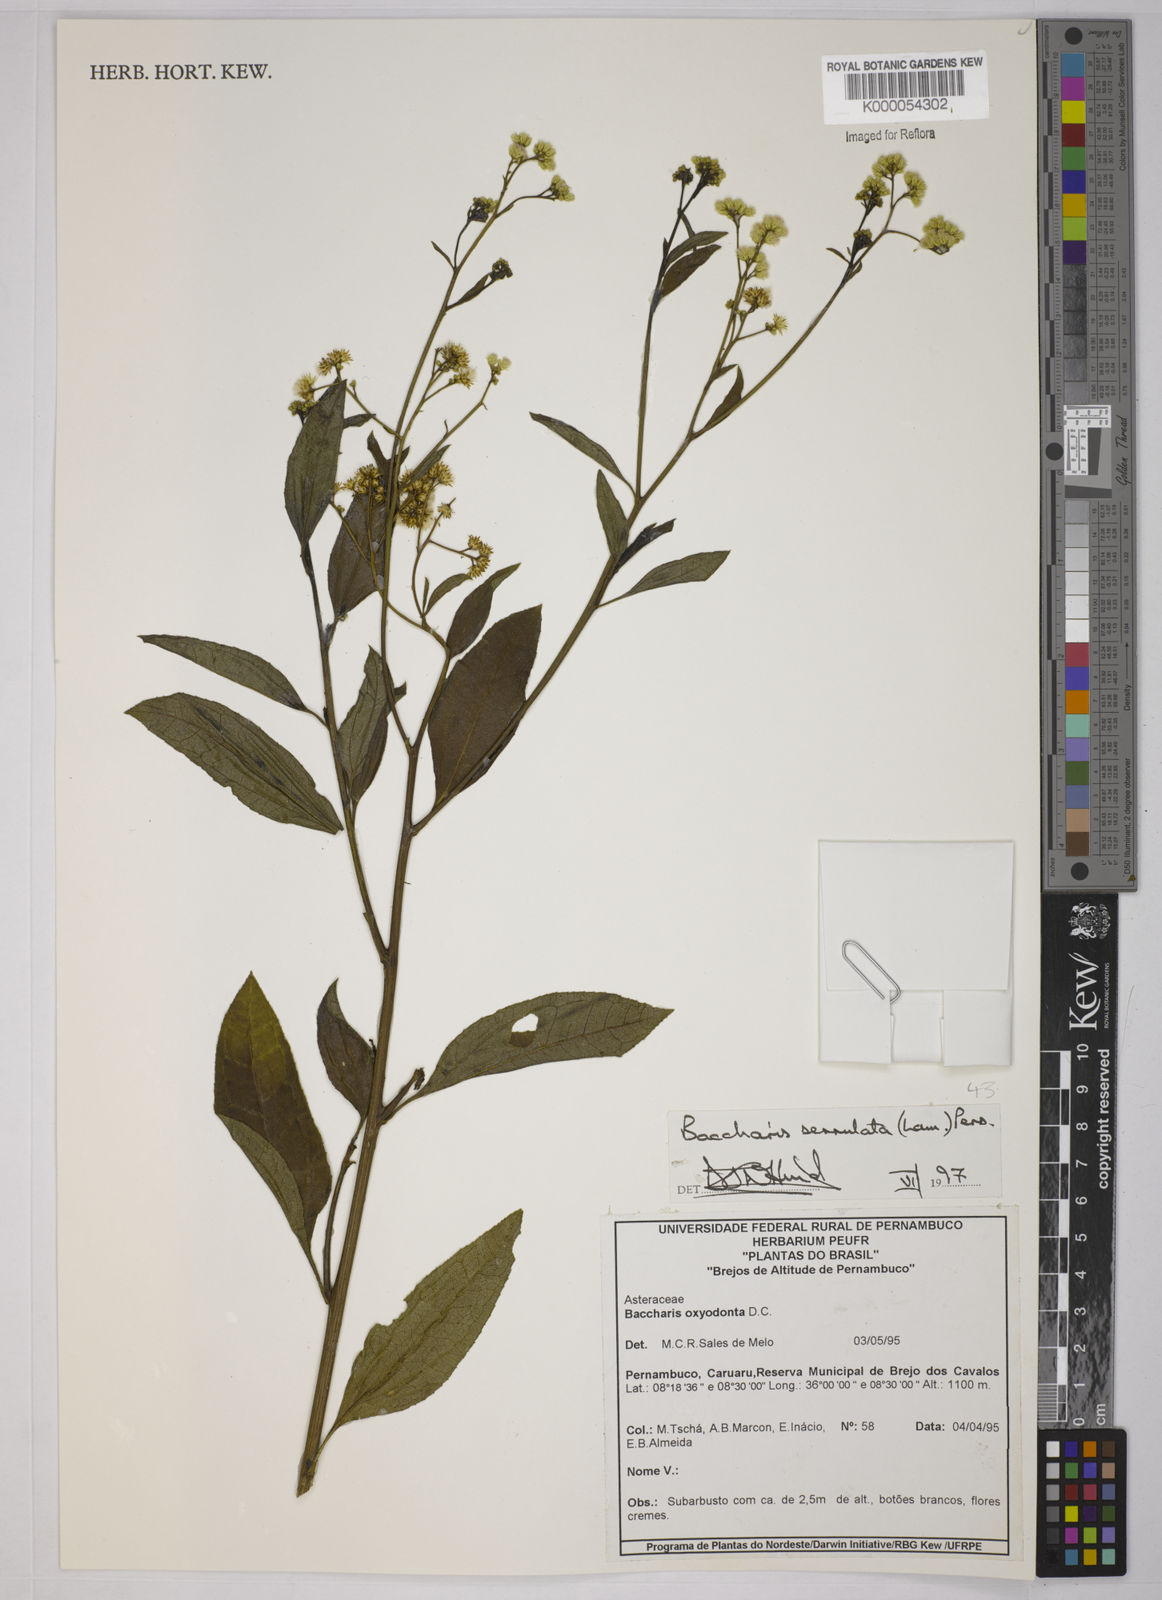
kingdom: Plantae
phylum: Tracheophyta
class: Magnoliopsida
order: Asterales
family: Asteraceae
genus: Baccharis
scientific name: Baccharis serrulata
